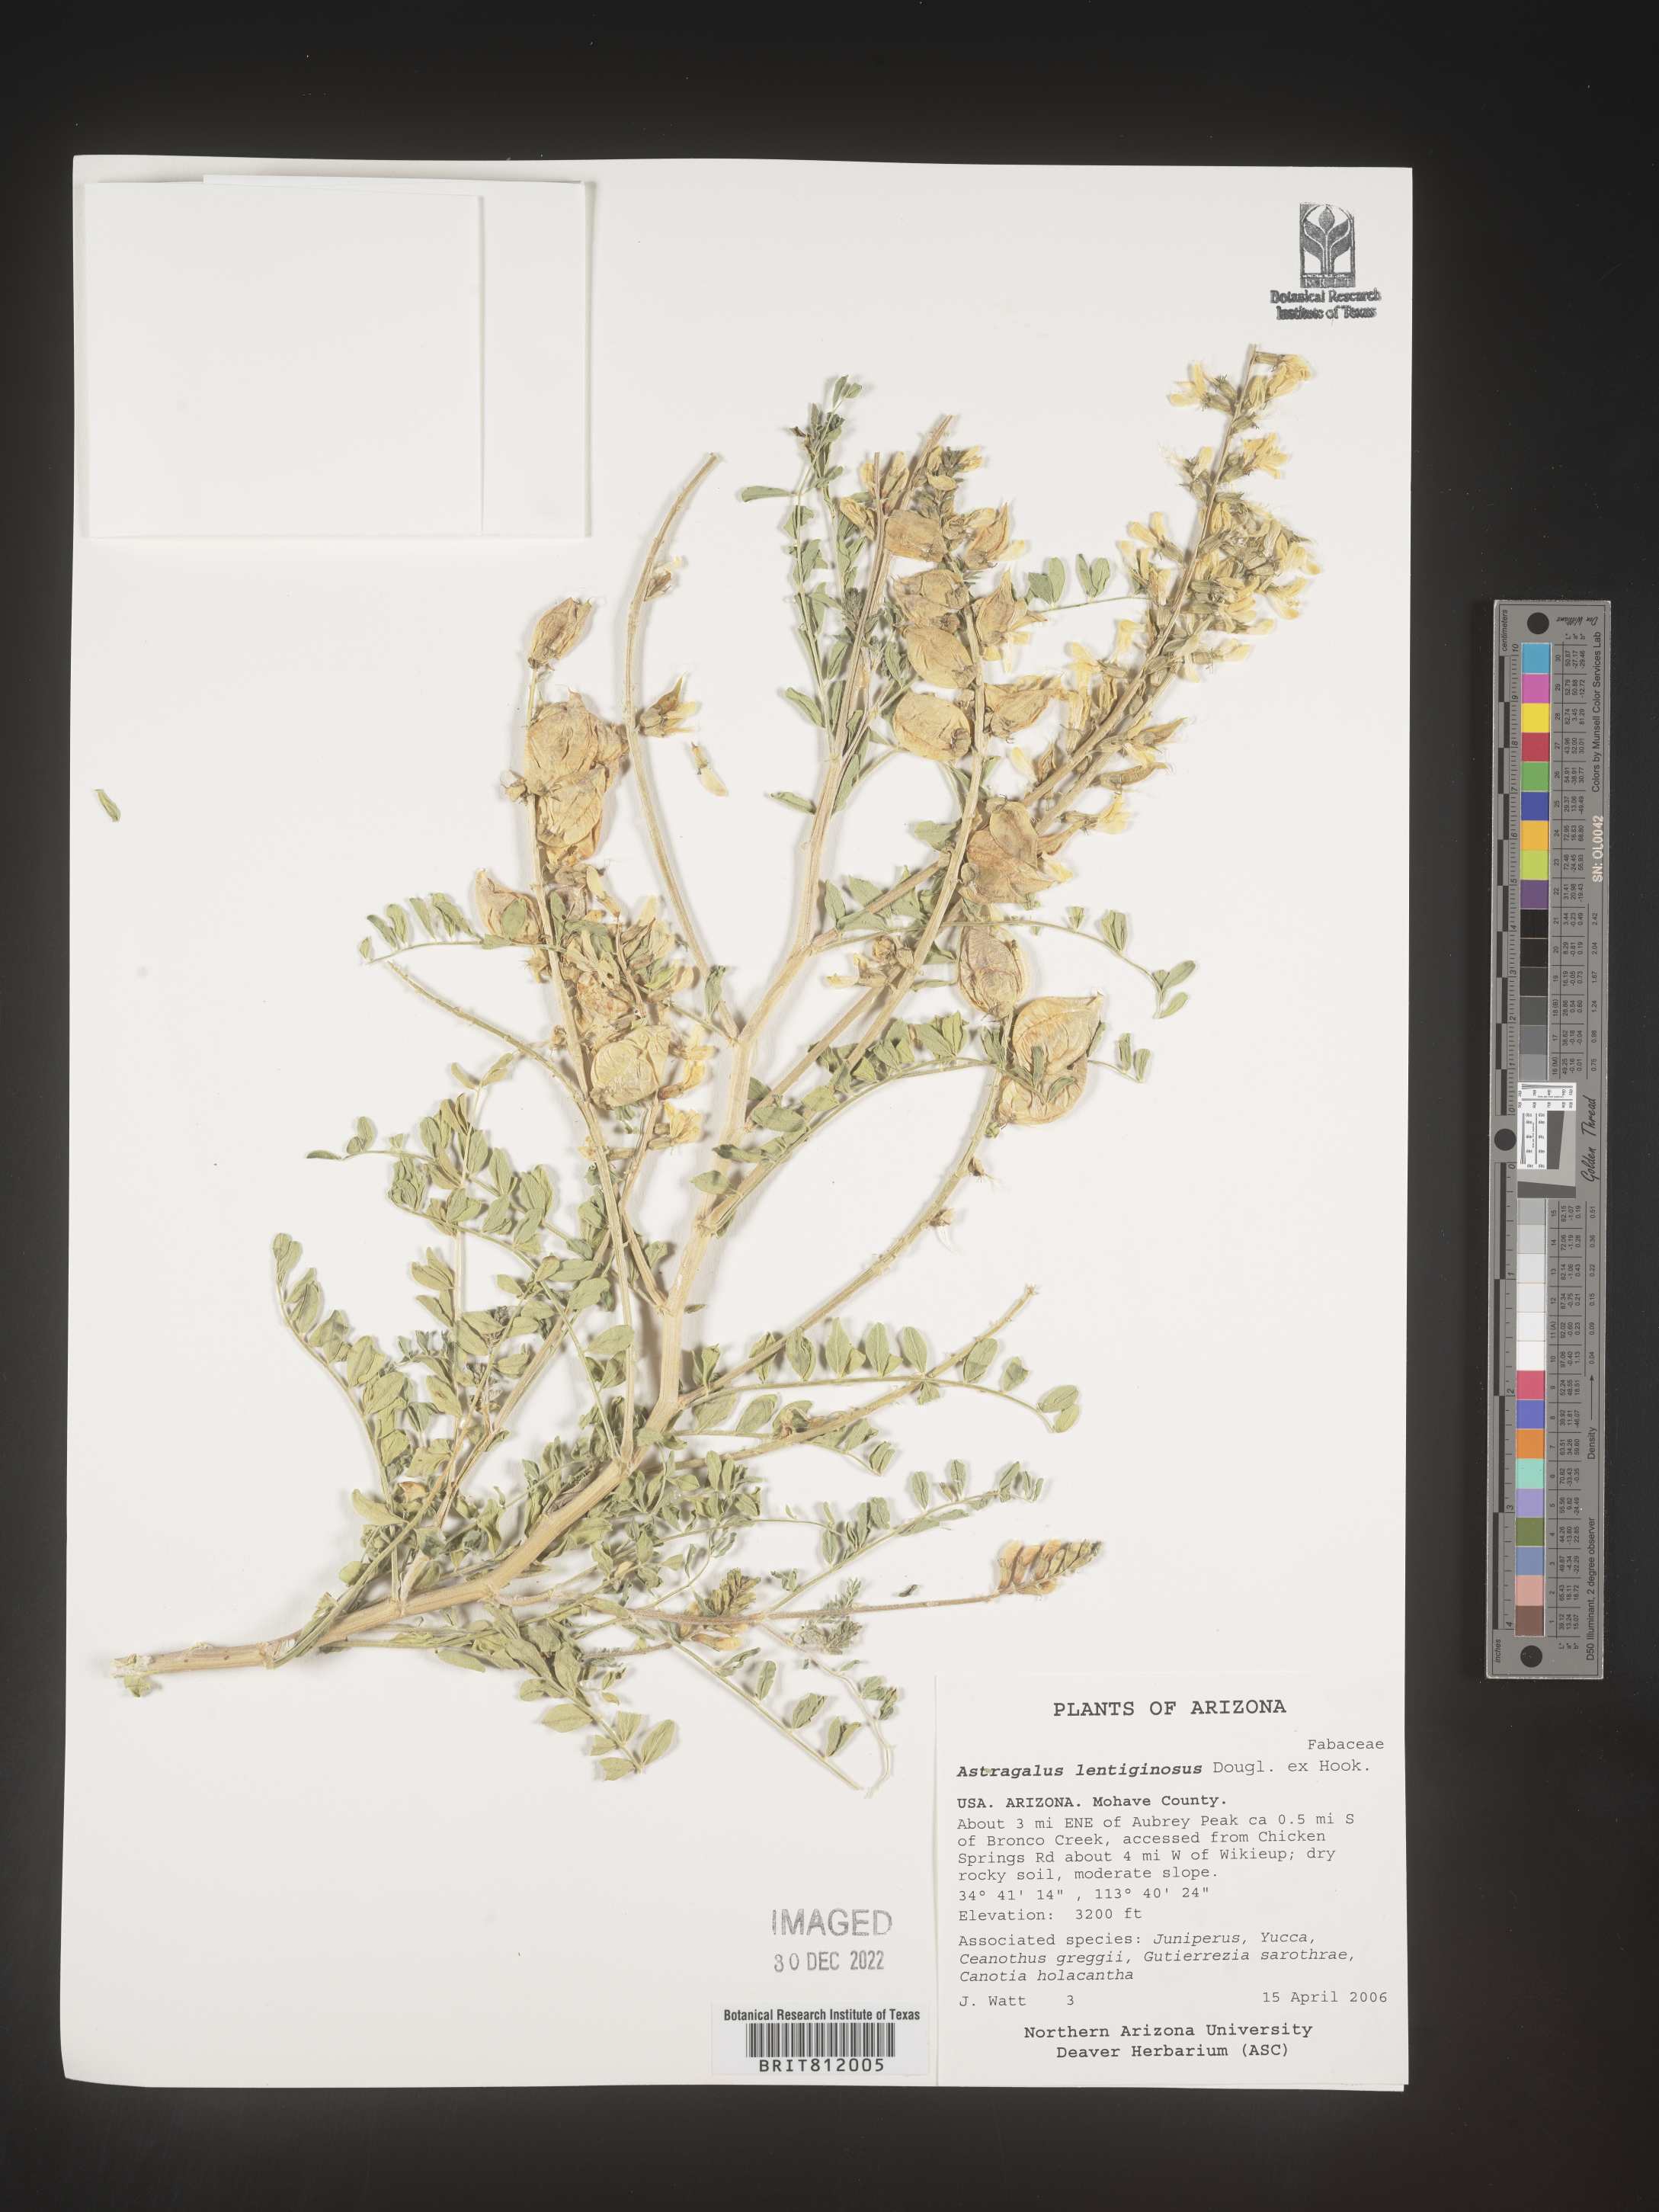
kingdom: Plantae
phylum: Tracheophyta
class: Magnoliopsida
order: Fabales
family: Fabaceae
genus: Astragalus
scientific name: Astragalus lentiginosus
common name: Freckled milkvetch
